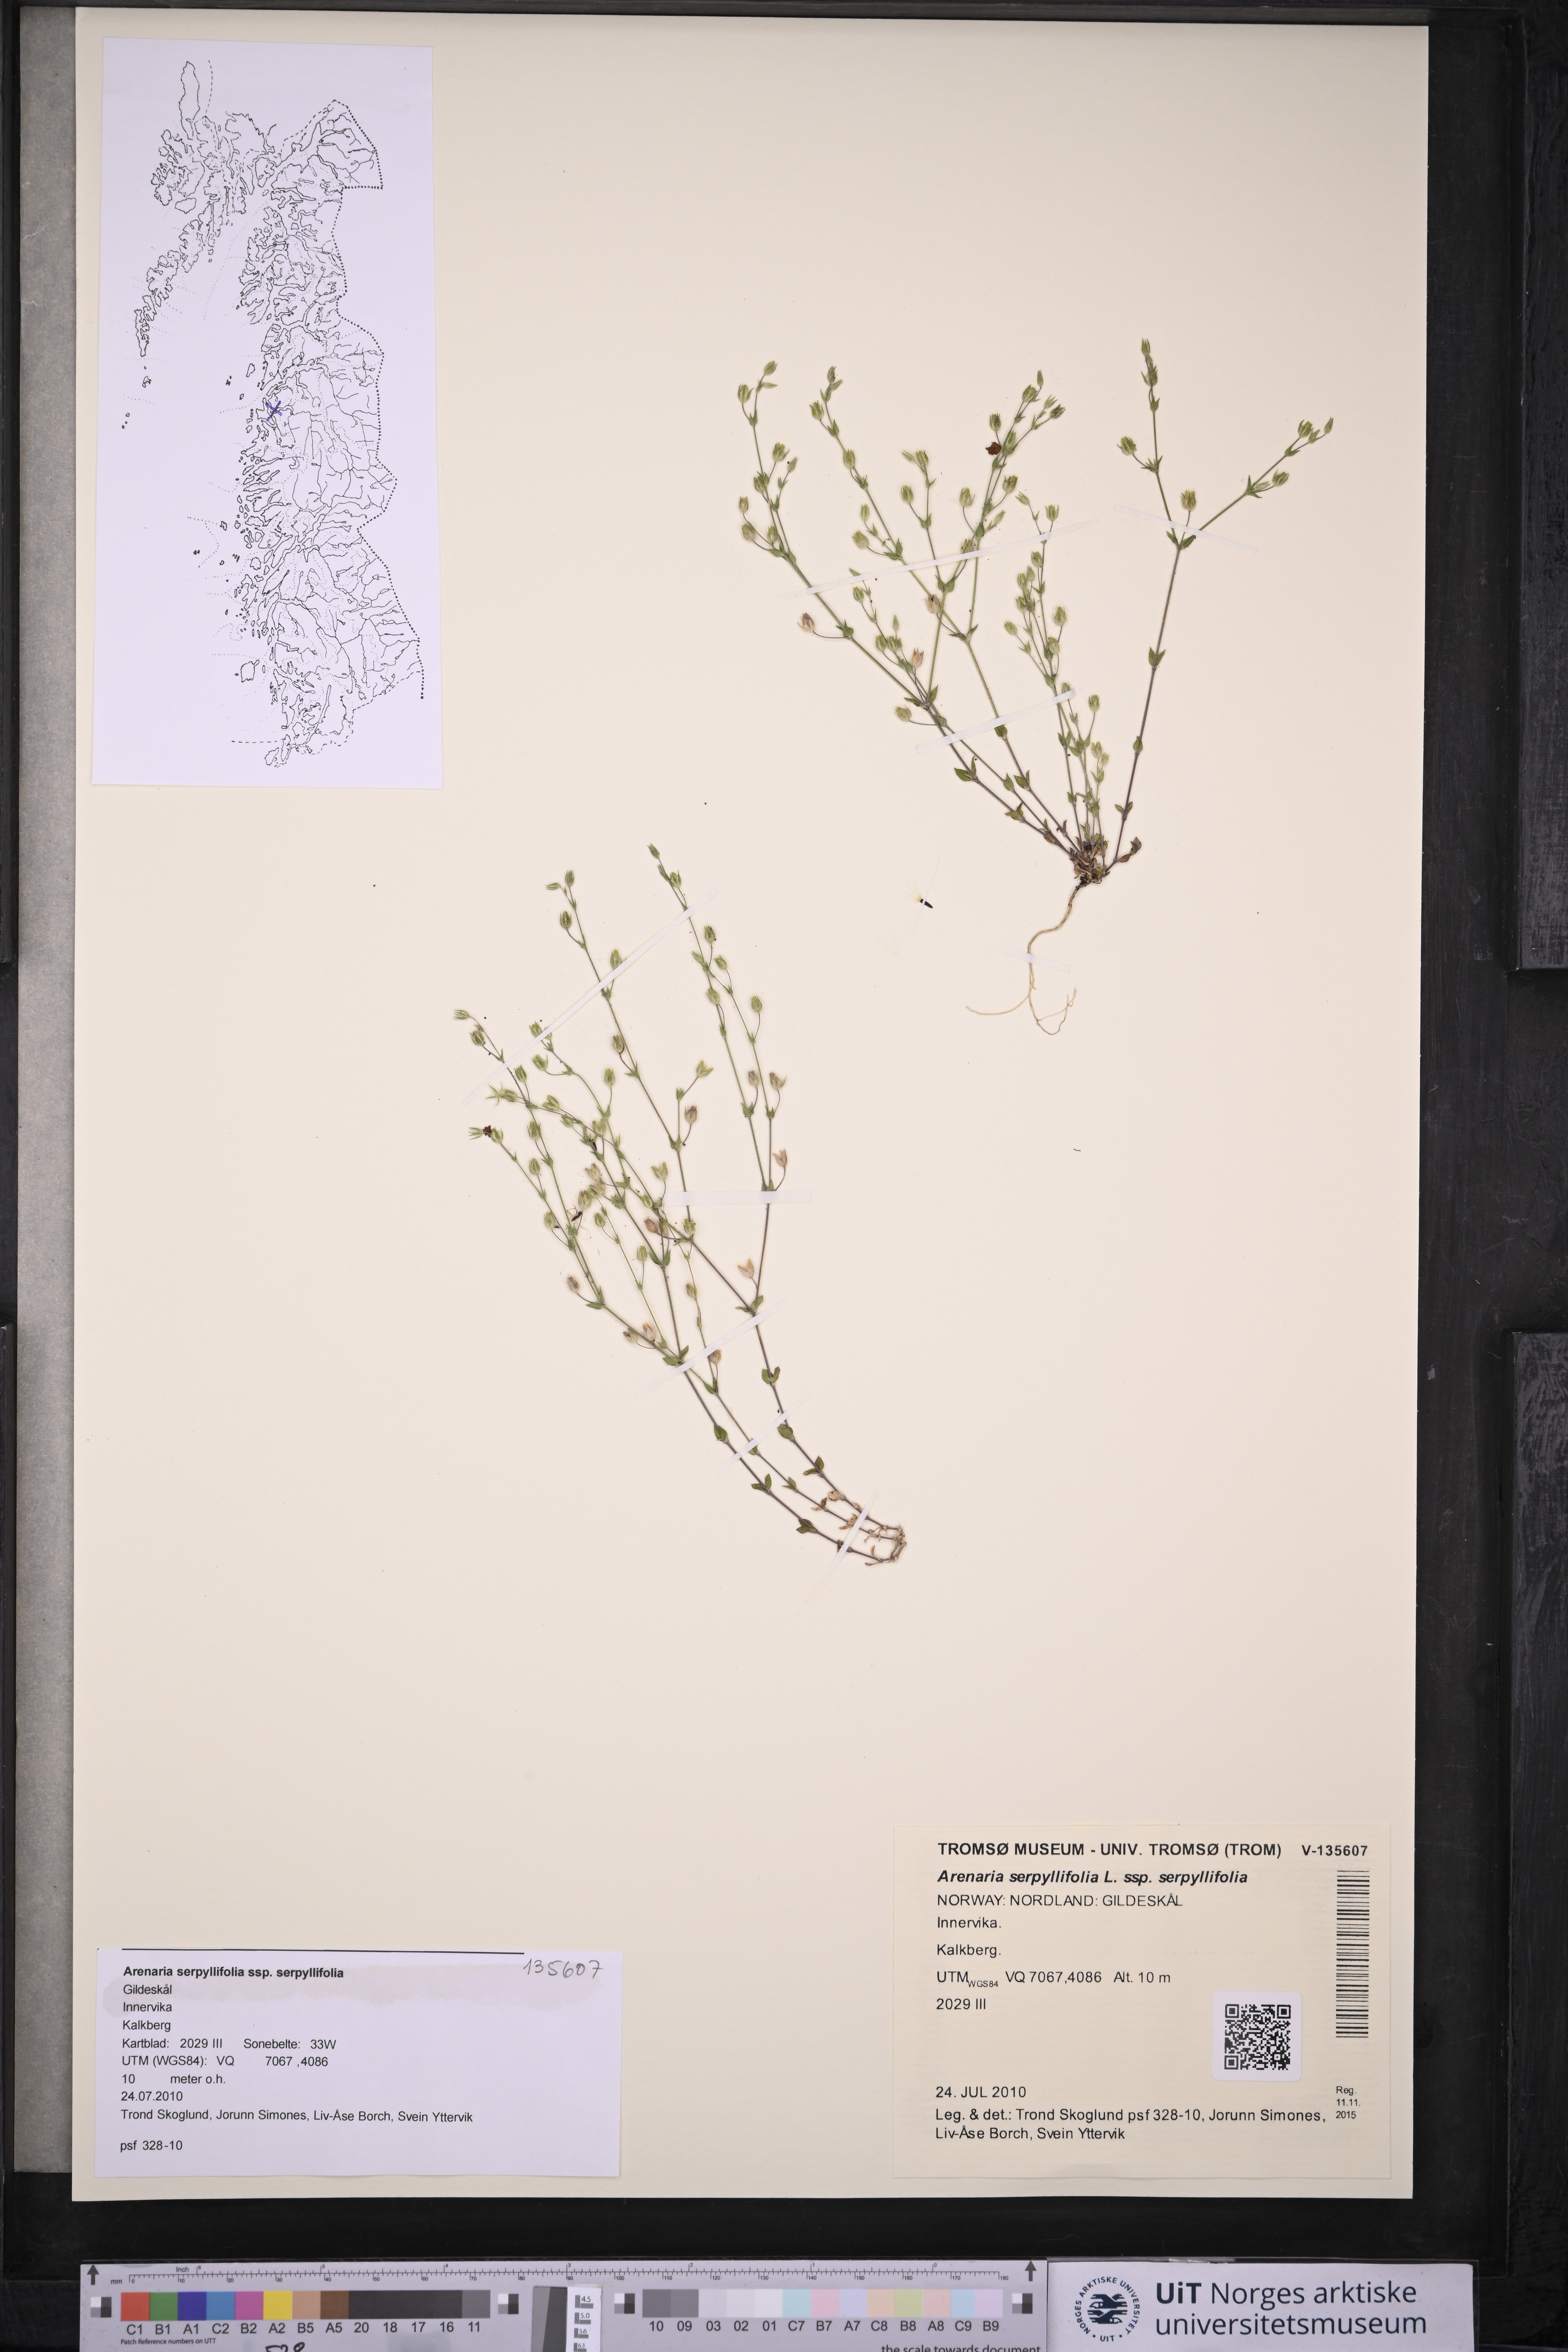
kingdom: Plantae
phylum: Tracheophyta
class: Magnoliopsida
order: Caryophyllales
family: Caryophyllaceae
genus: Arenaria
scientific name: Arenaria serpyllifolia
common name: Thyme-leaved sandwort
